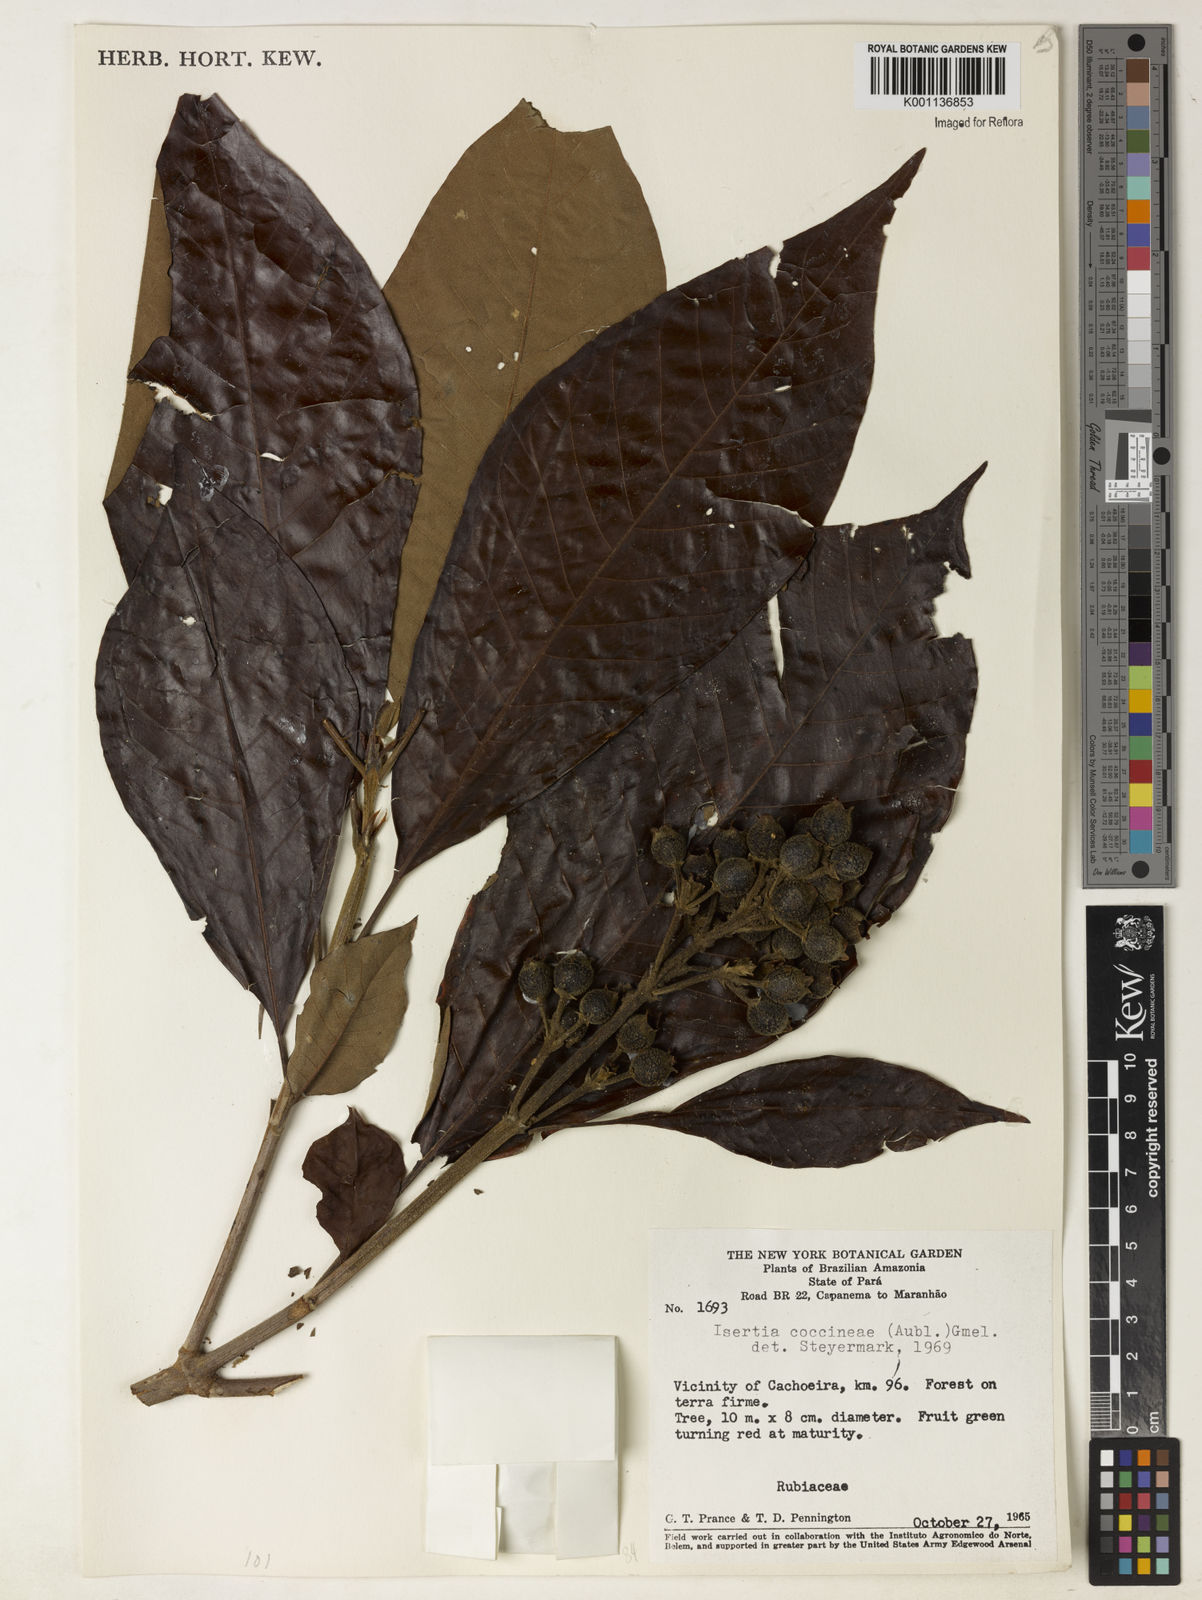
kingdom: Plantae
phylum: Tracheophyta
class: Magnoliopsida
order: Gentianales
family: Rubiaceae
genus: Isertia
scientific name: Isertia coccinea
